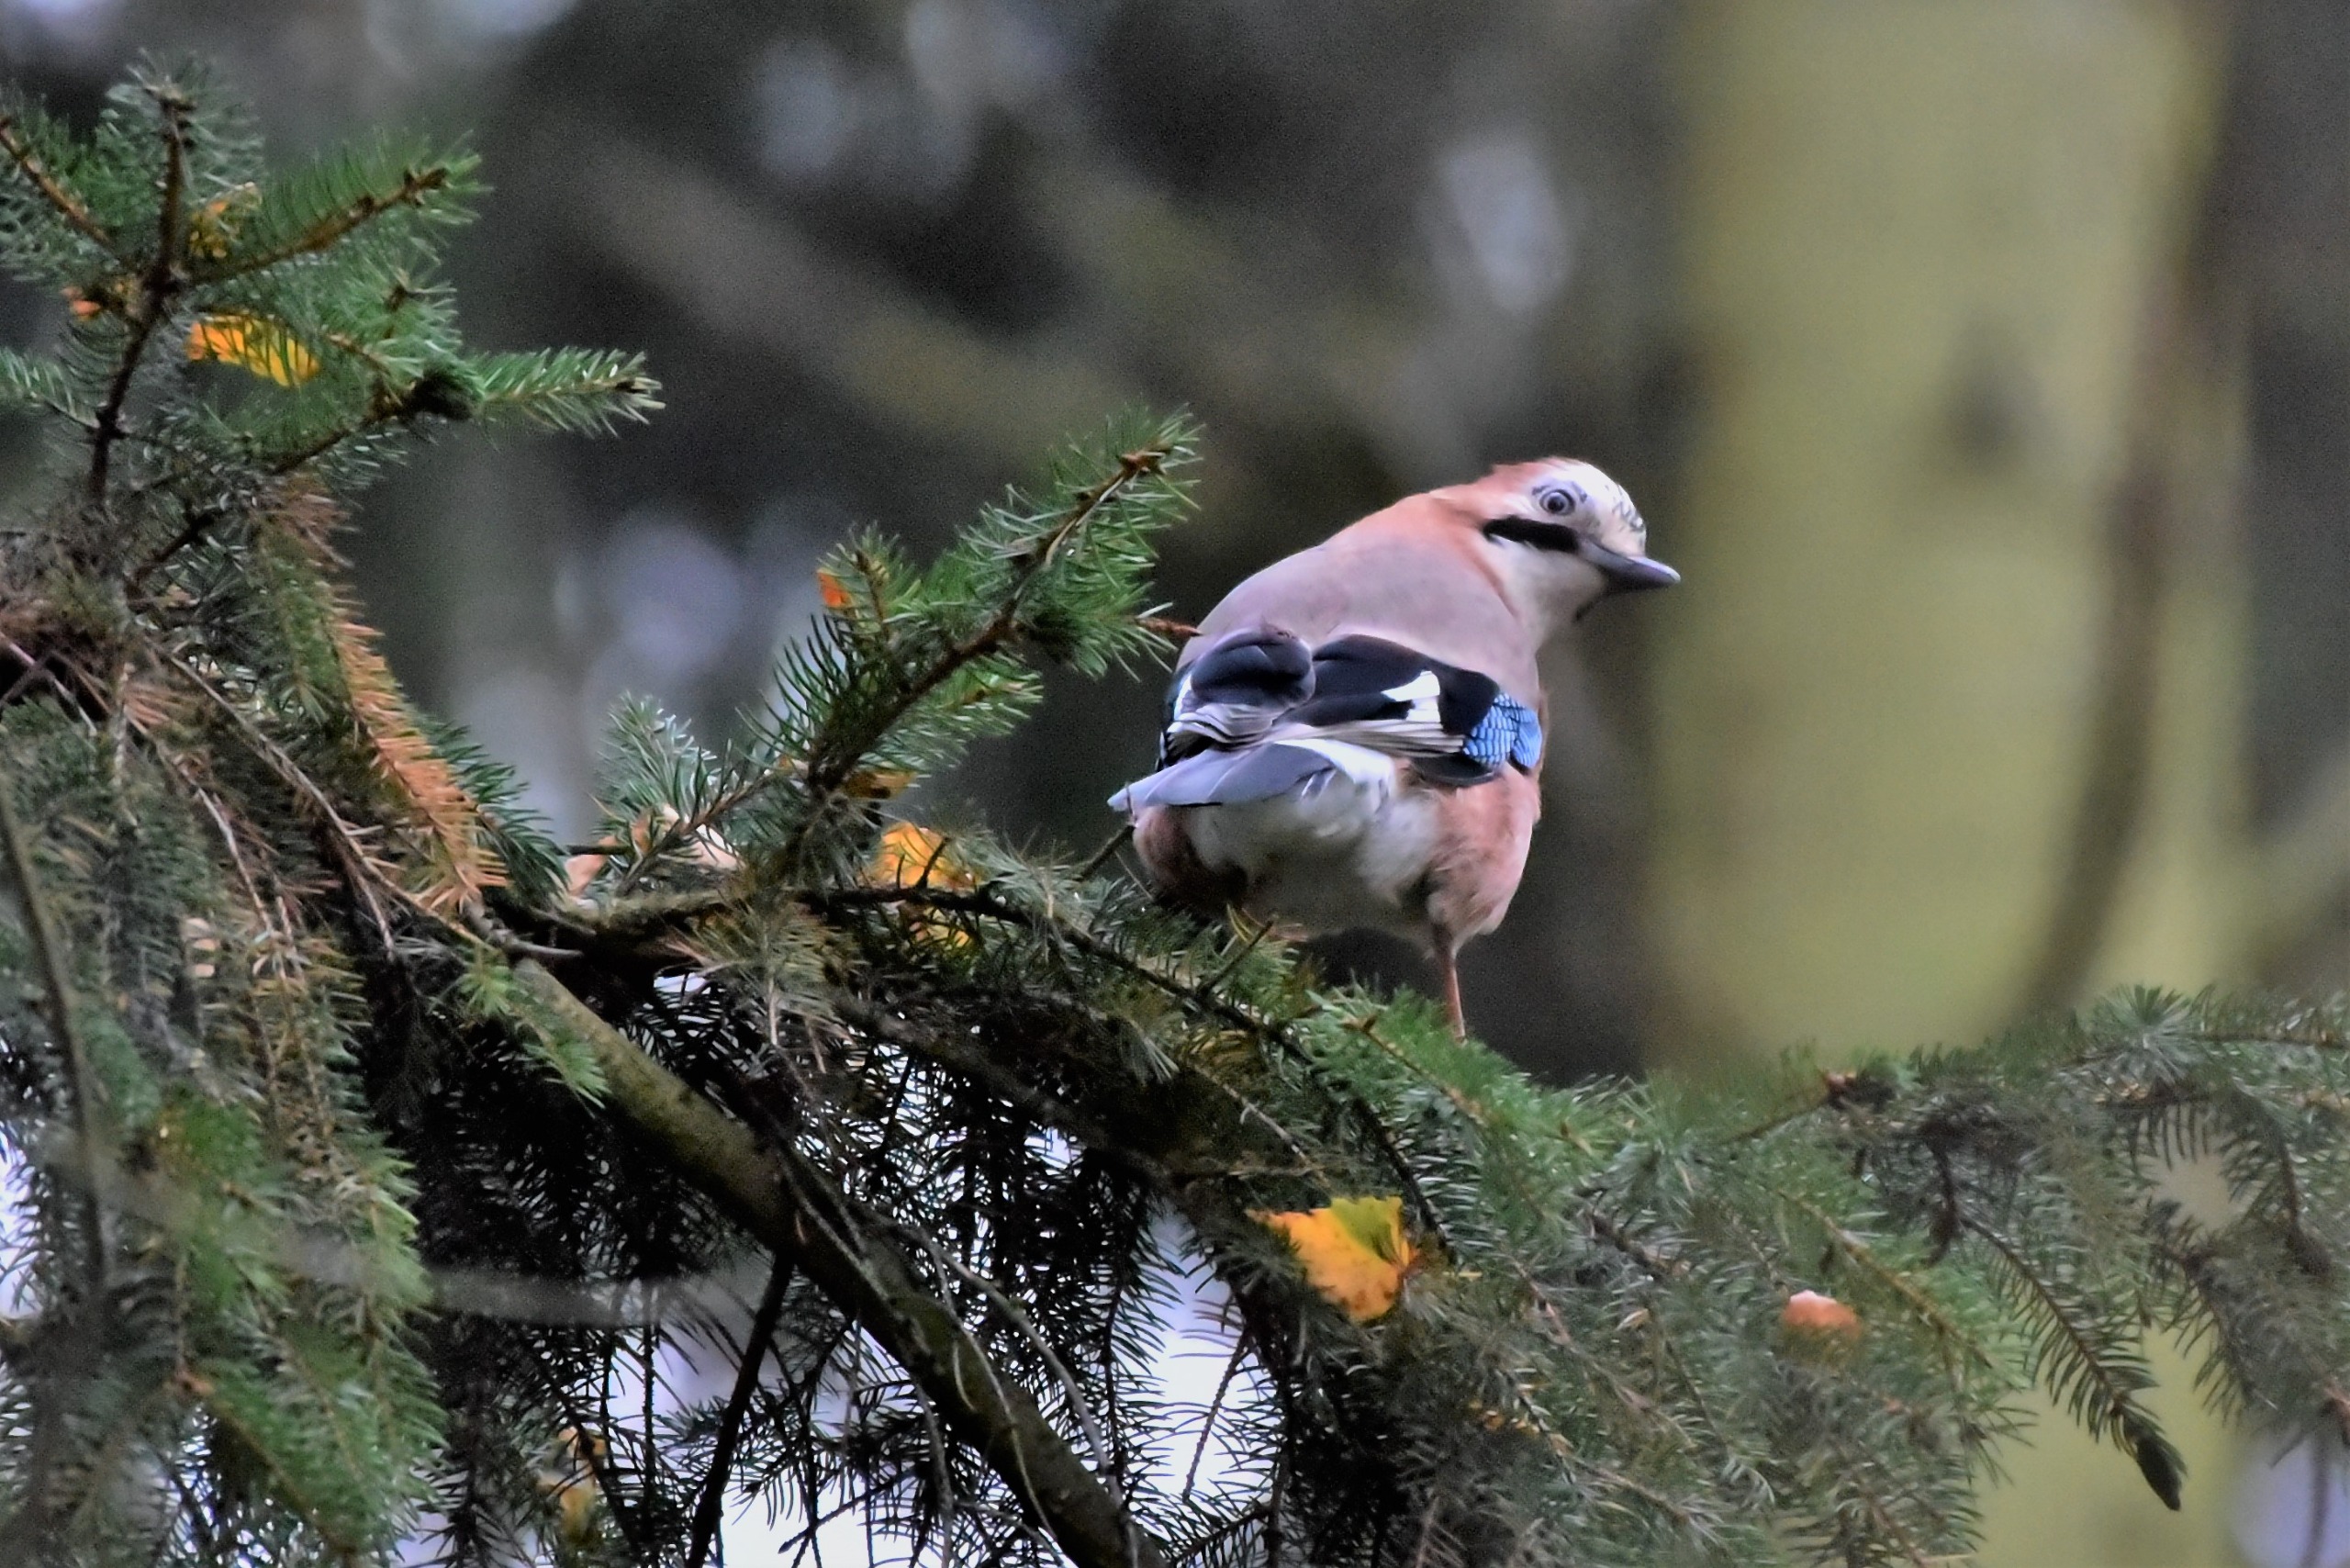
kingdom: Animalia
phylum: Chordata
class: Aves
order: Passeriformes
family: Corvidae
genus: Garrulus
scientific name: Garrulus glandarius
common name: Skovskade
